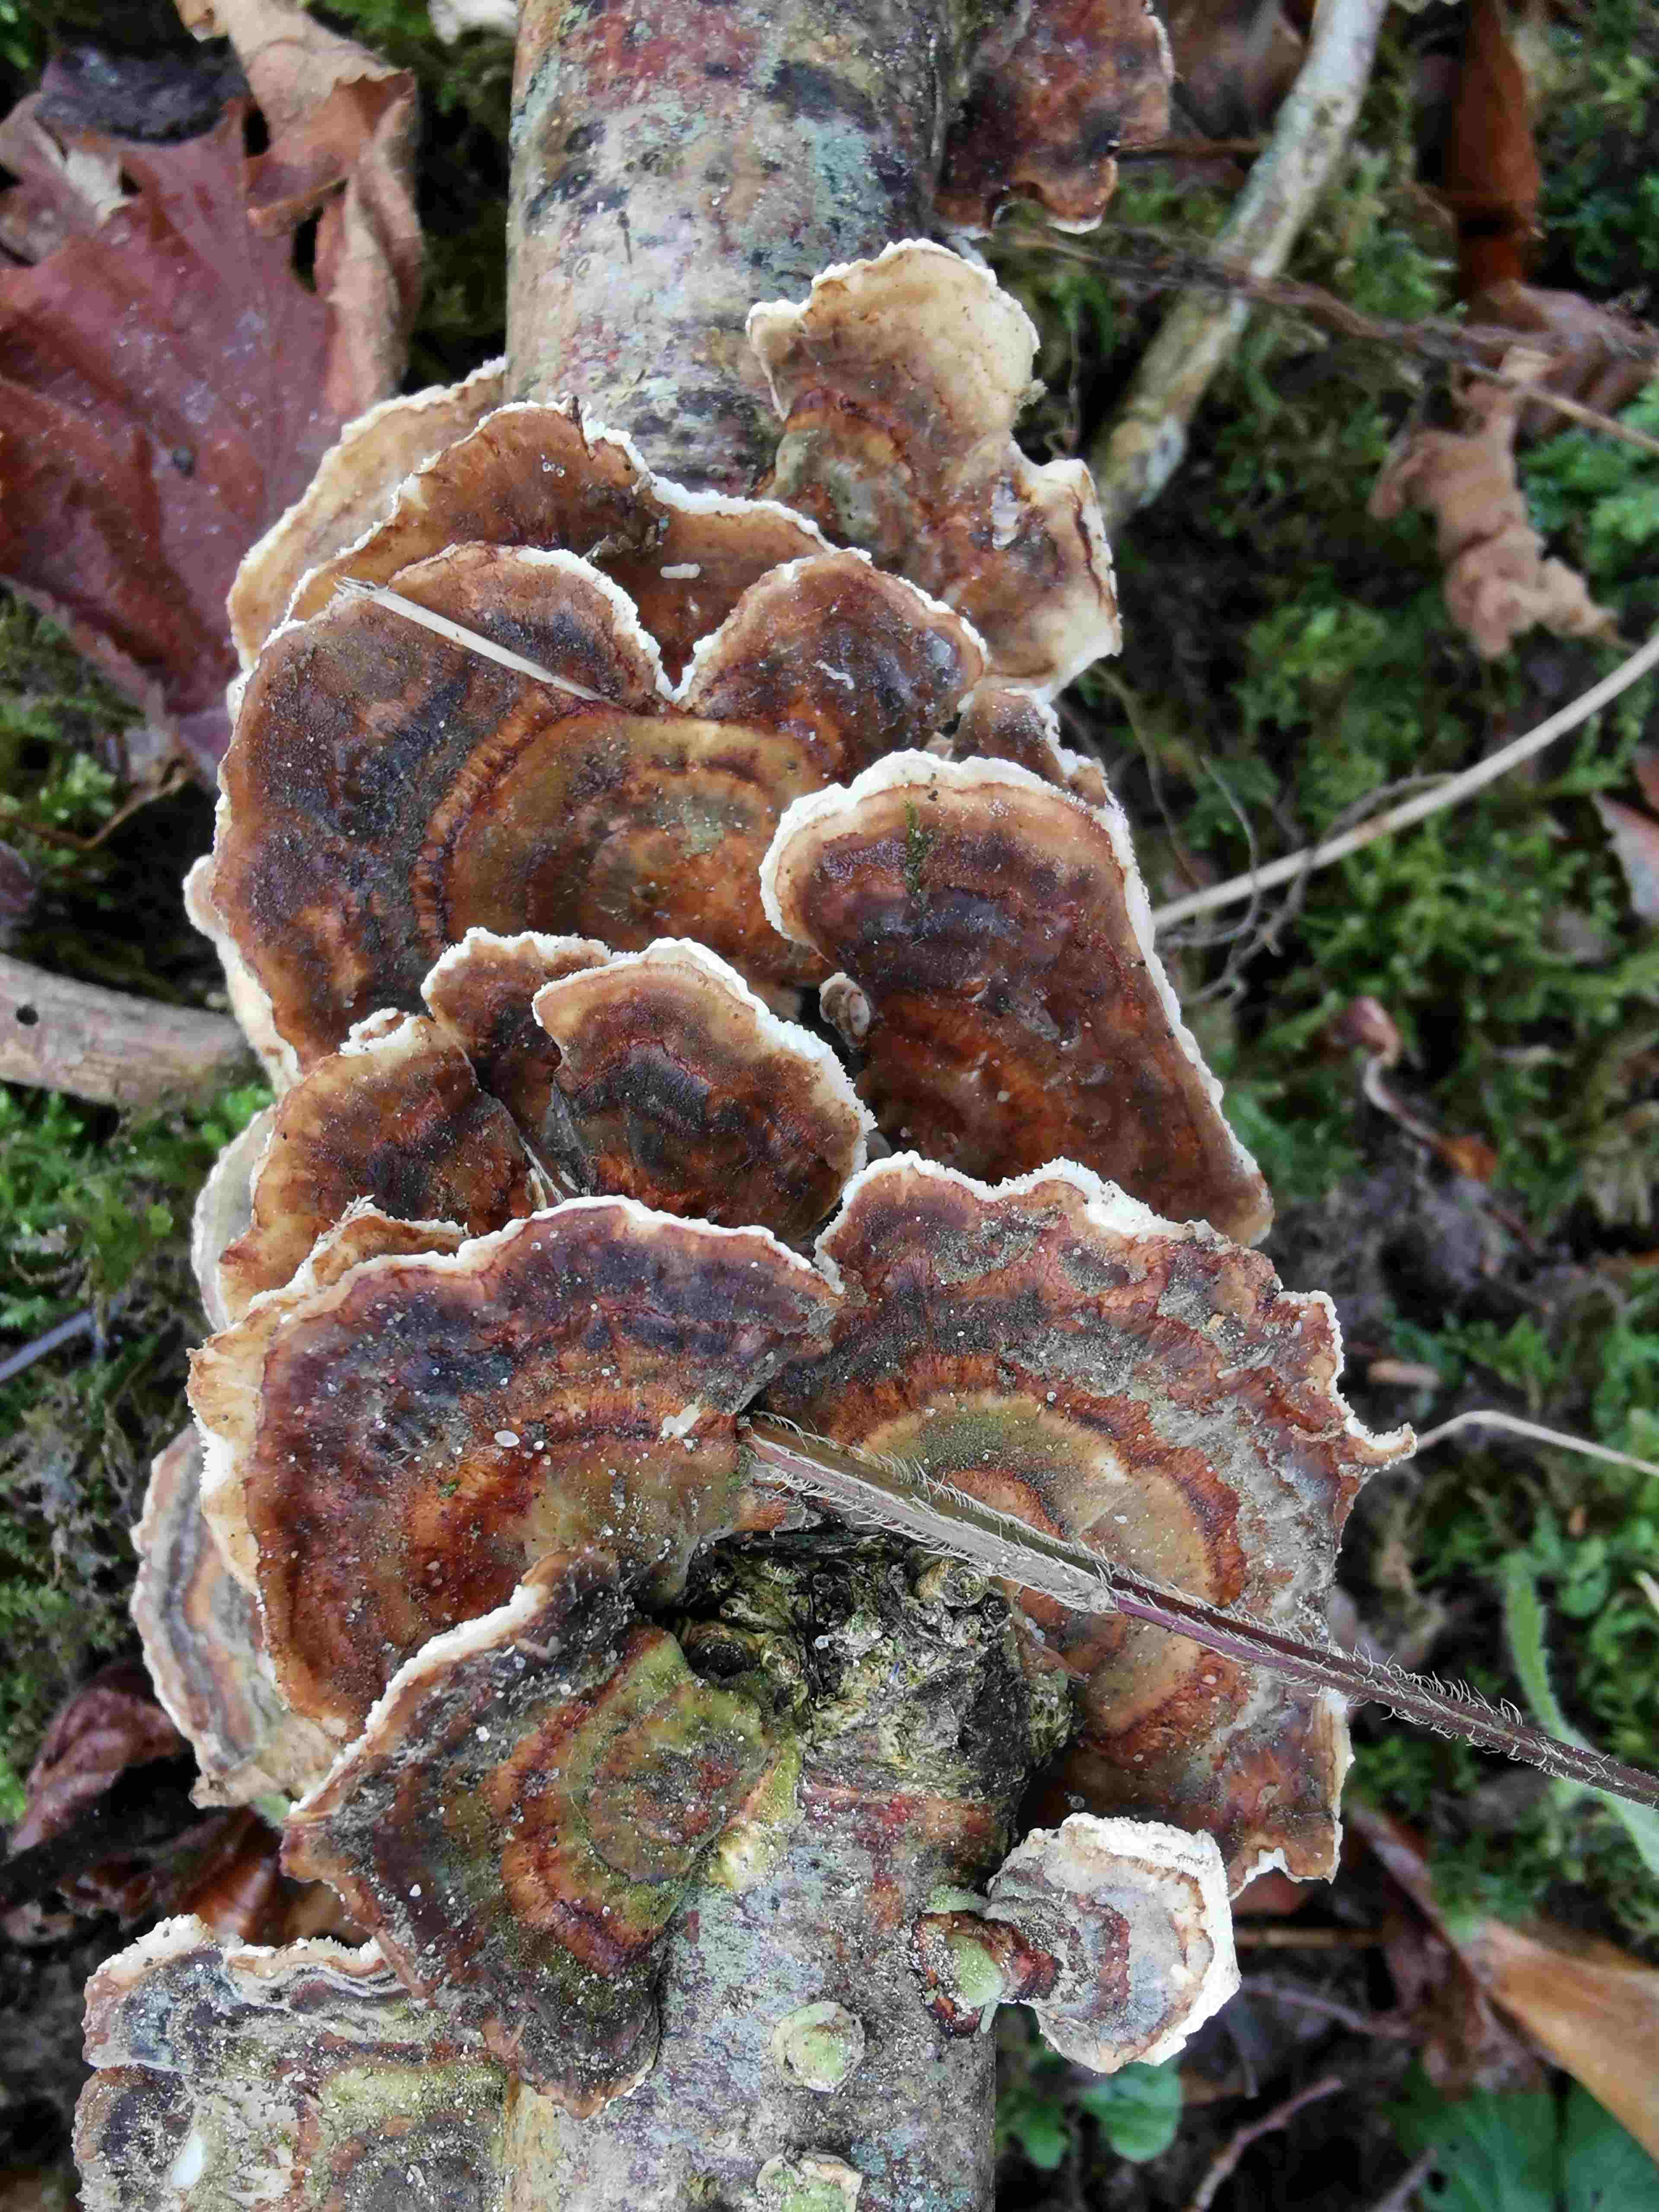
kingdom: Fungi
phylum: Basidiomycota
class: Agaricomycetes
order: Polyporales
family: Polyporaceae
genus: Trametes
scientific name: Trametes versicolor
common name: broget læderporesvamp
